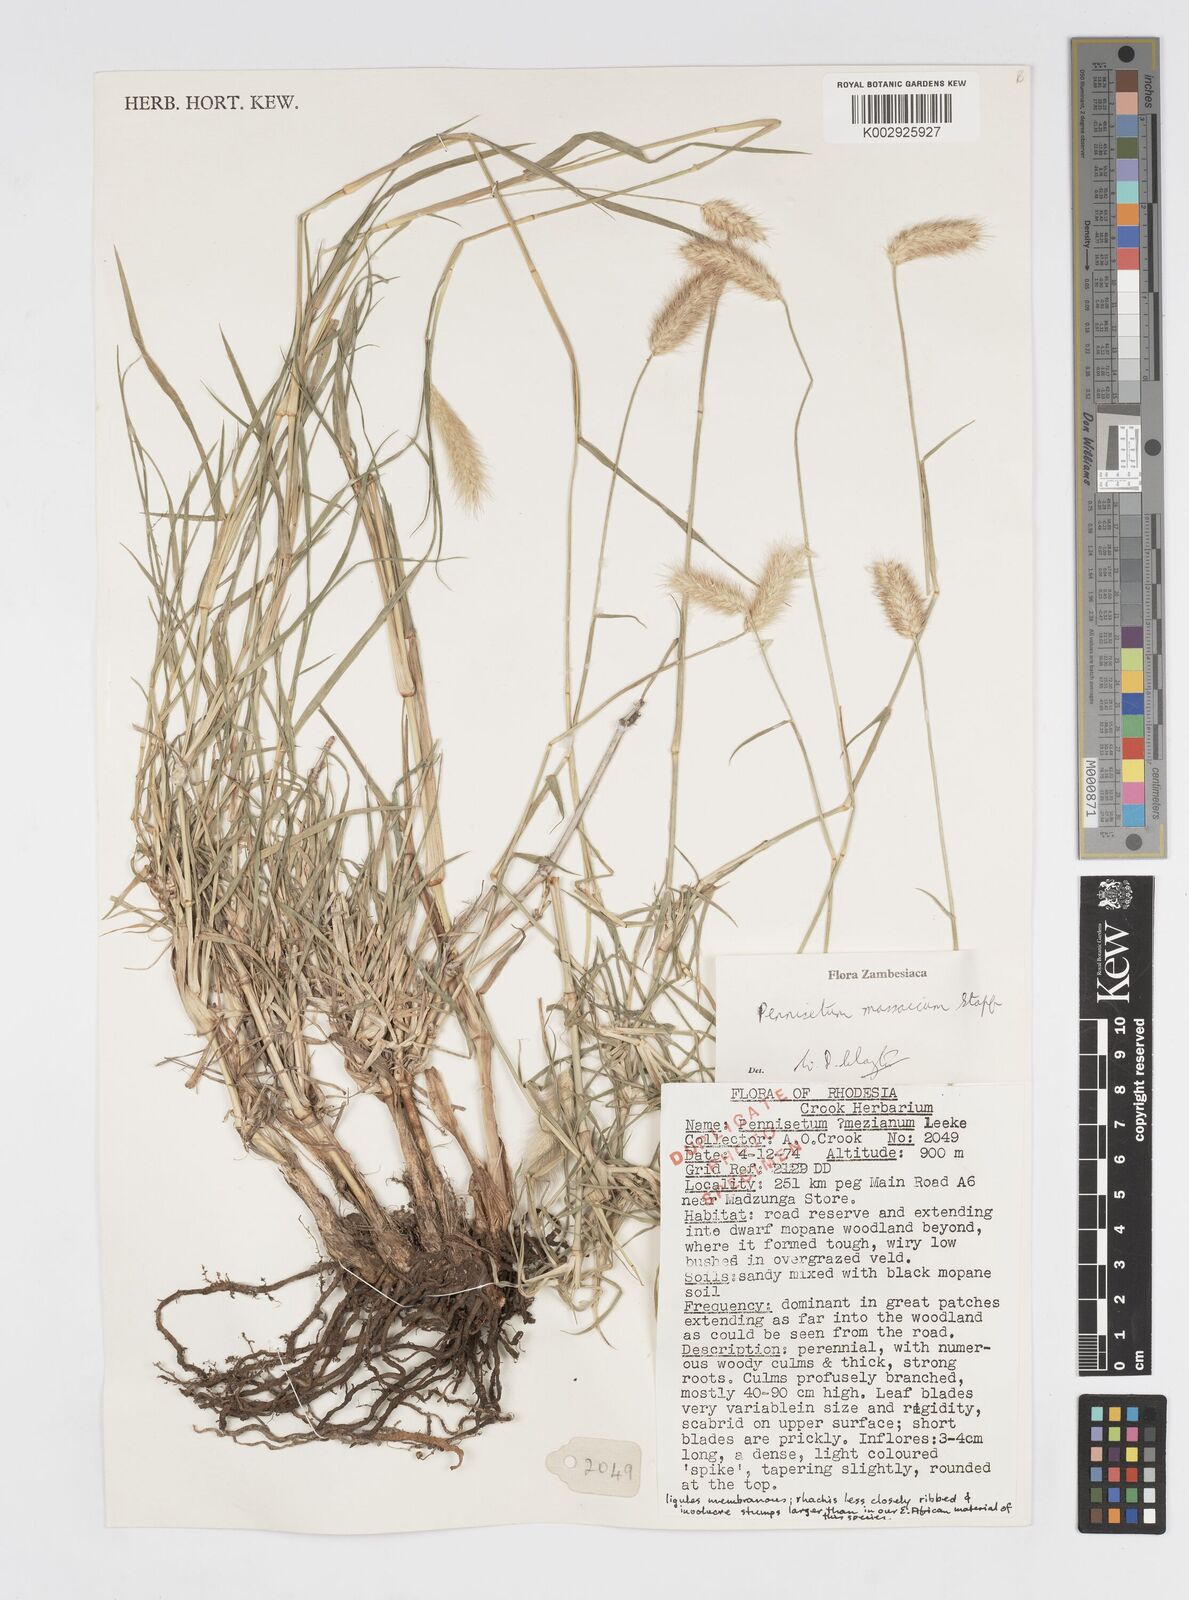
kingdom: Plantae
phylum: Tracheophyta
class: Liliopsida
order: Poales
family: Poaceae
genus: Cenchrus
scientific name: Cenchrus massaicus
